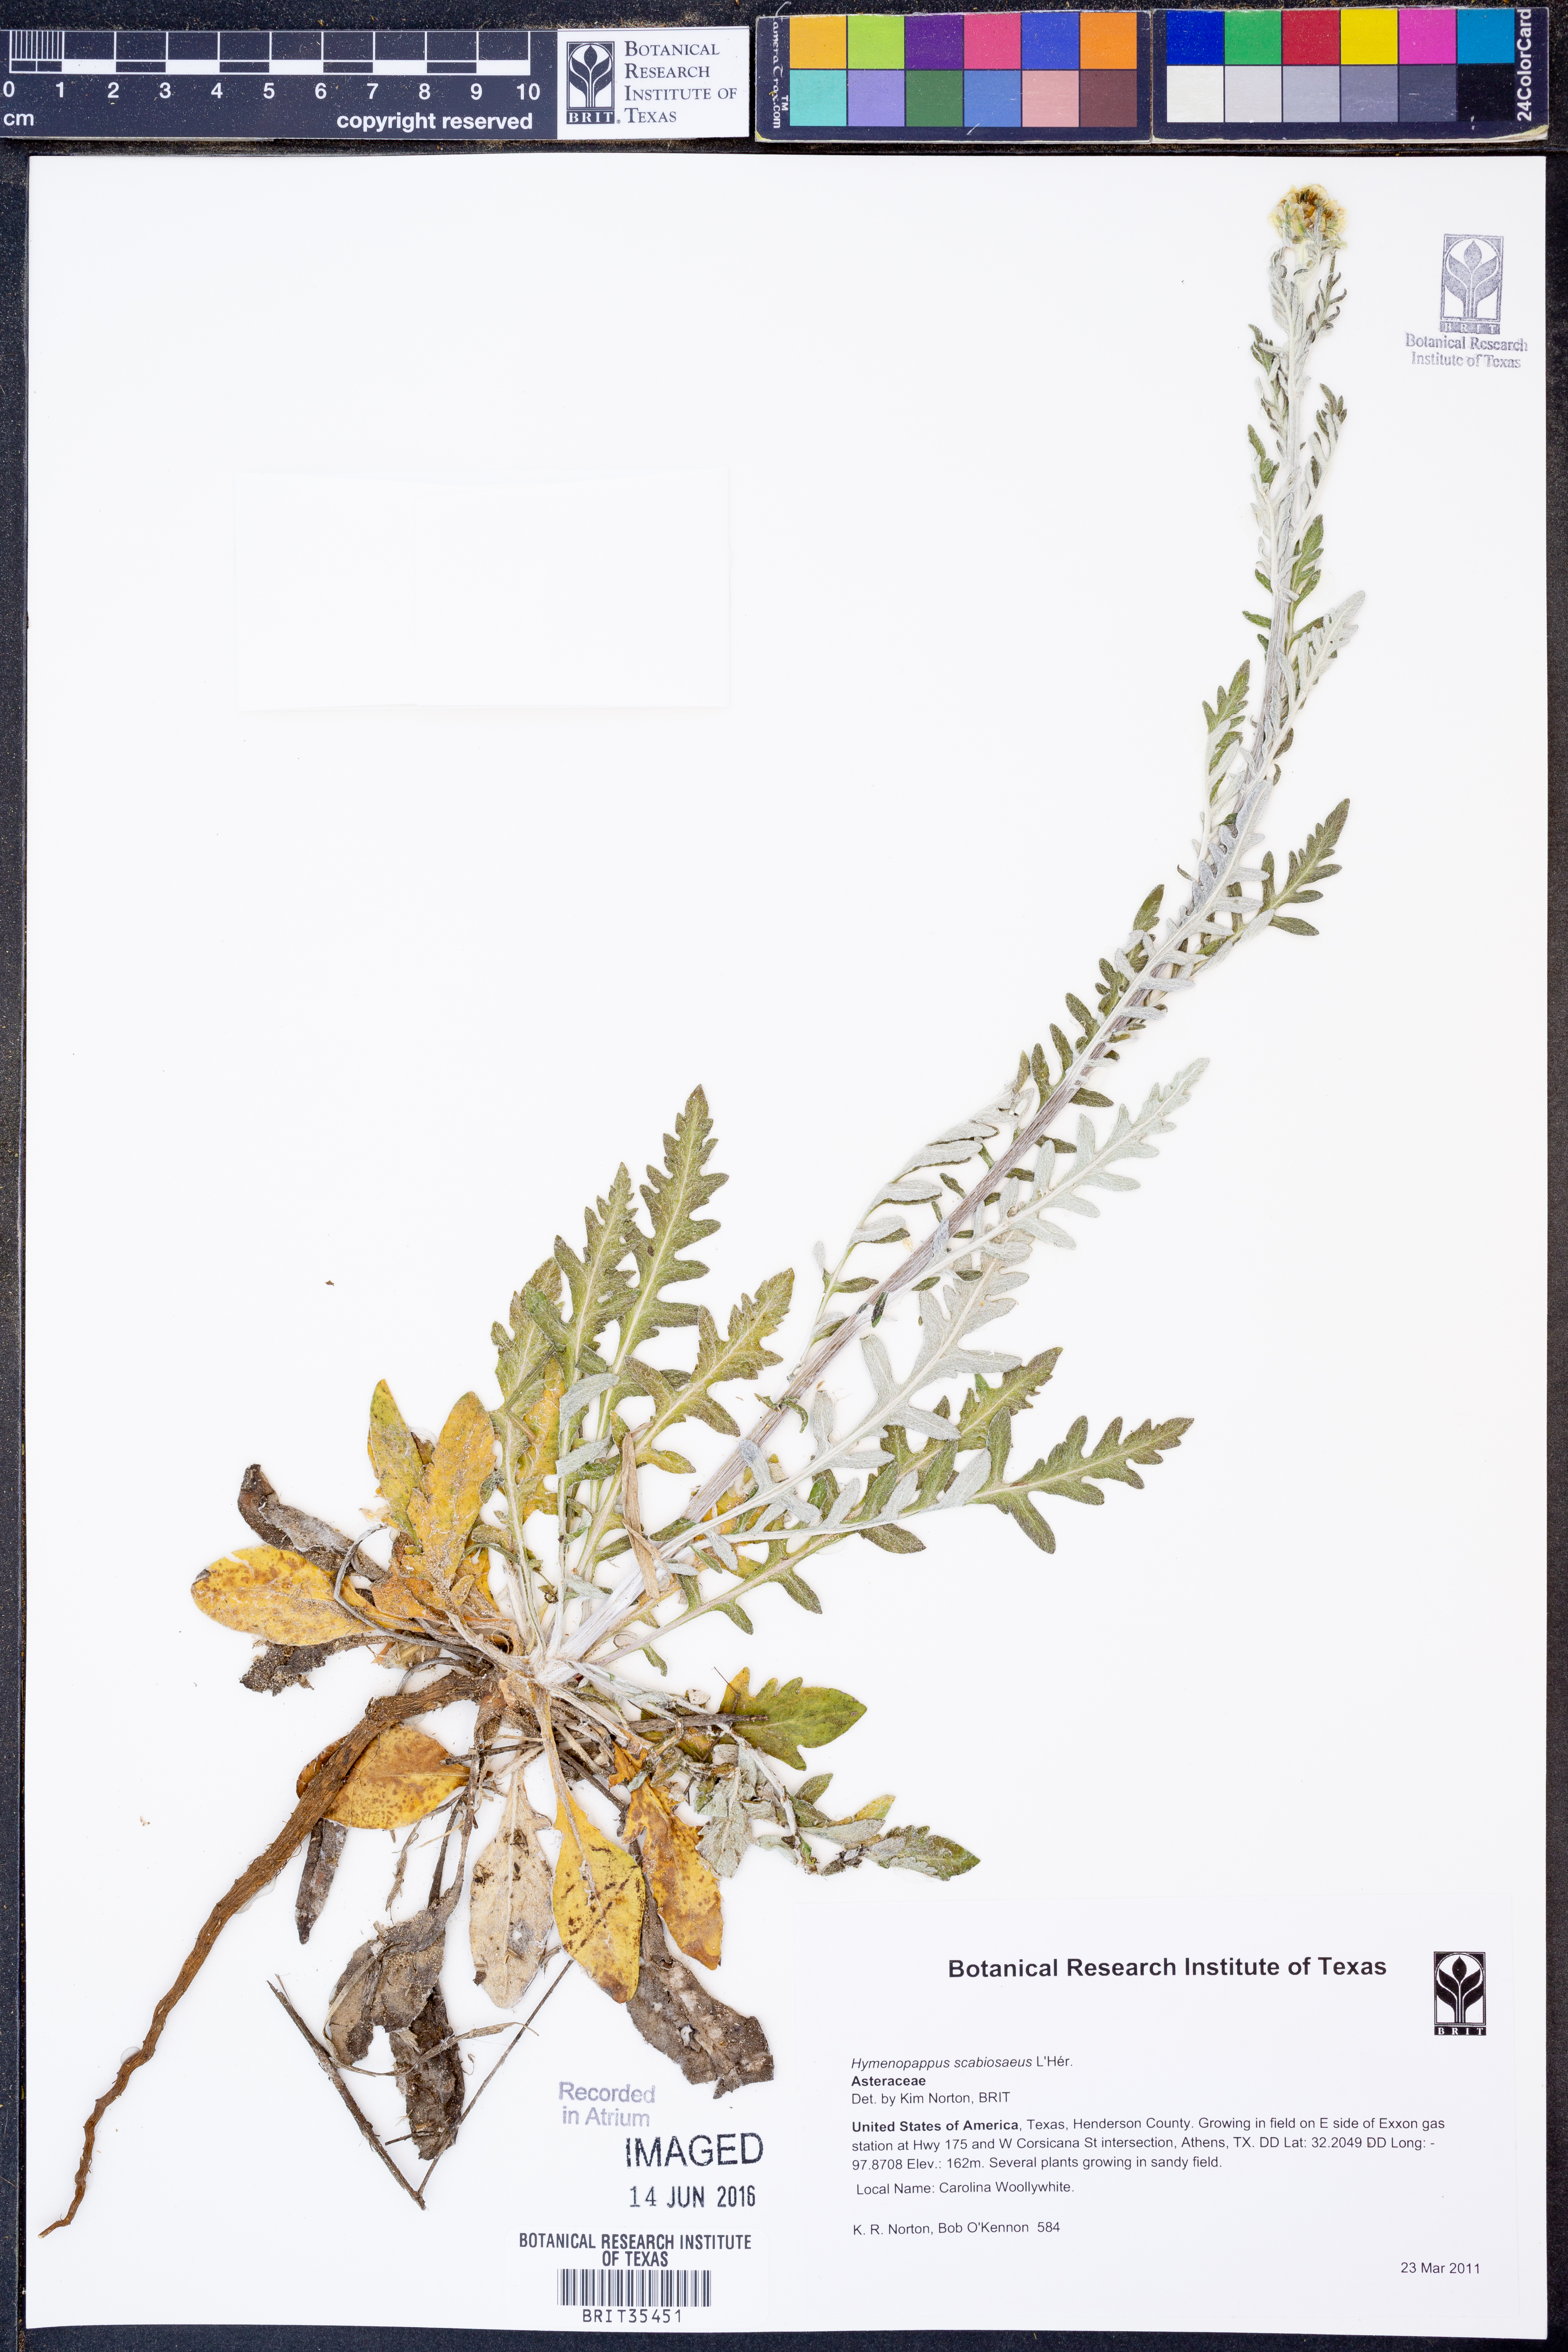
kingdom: Plantae
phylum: Tracheophyta
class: Magnoliopsida
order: Asterales
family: Asteraceae
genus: Hymenopappus
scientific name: Hymenopappus scabiosaeus
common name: Carolina woollywhite
